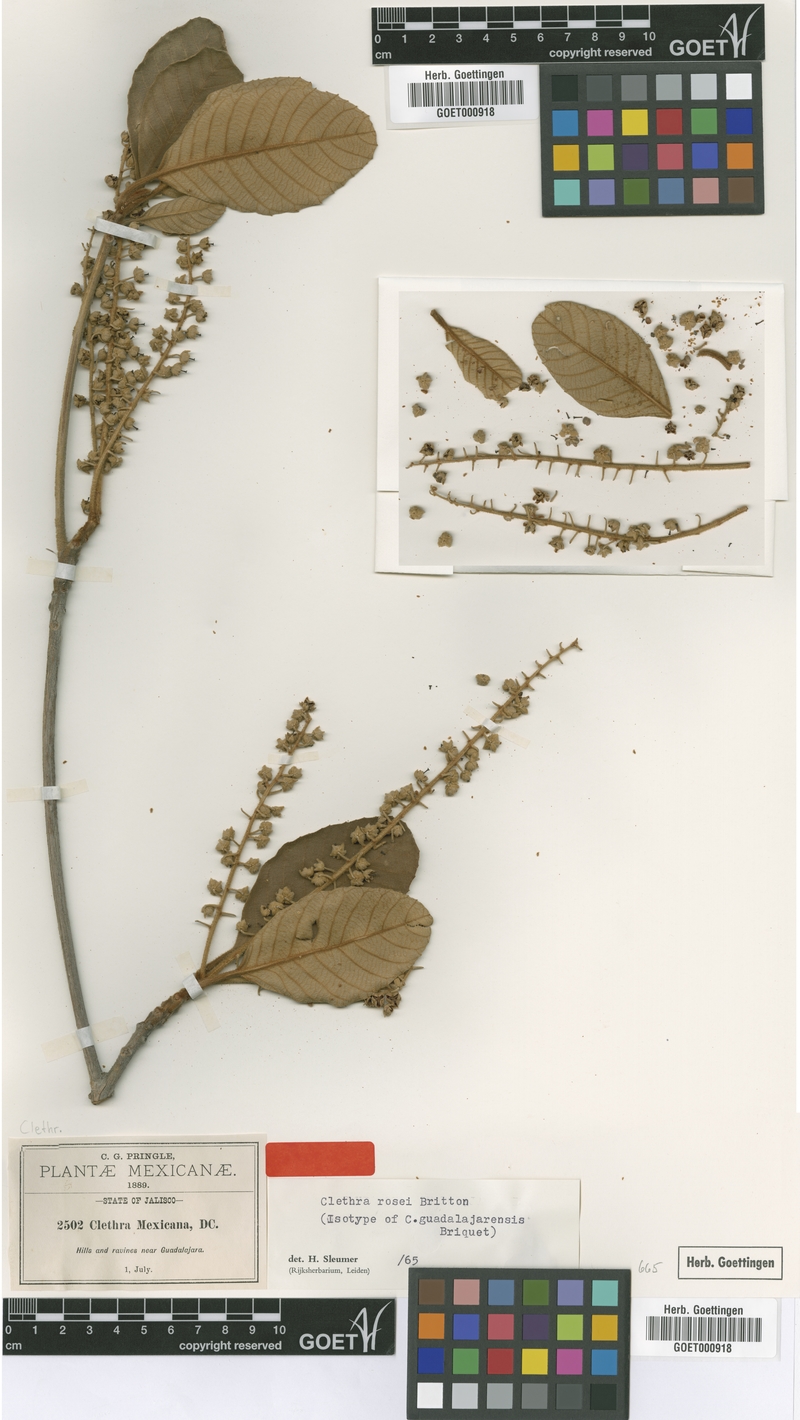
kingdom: Plantae
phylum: Tracheophyta
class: Magnoliopsida
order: Ericales
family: Clethraceae
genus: Clethra
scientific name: Clethra rosei
